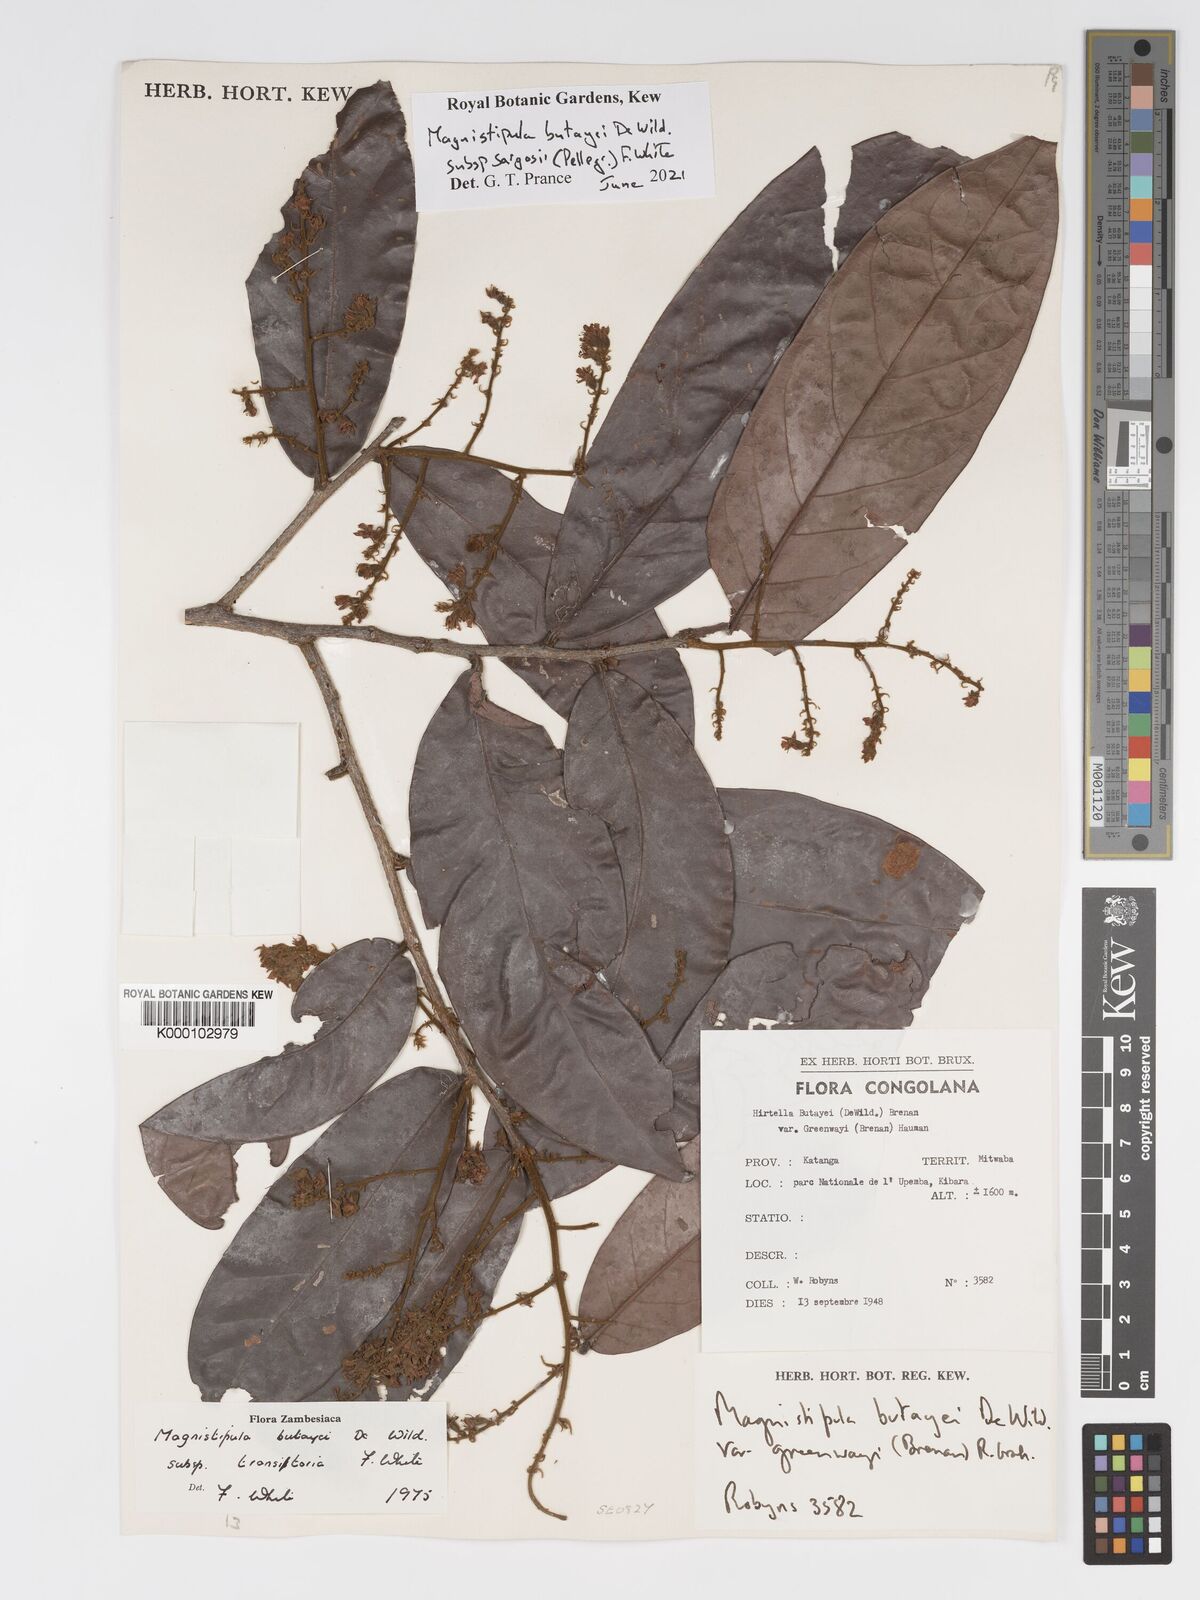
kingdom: Plantae
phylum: Tracheophyta
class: Magnoliopsida
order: Malpighiales
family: Chrysobalanaceae
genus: Magnistipula
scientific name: Magnistipula butayei
